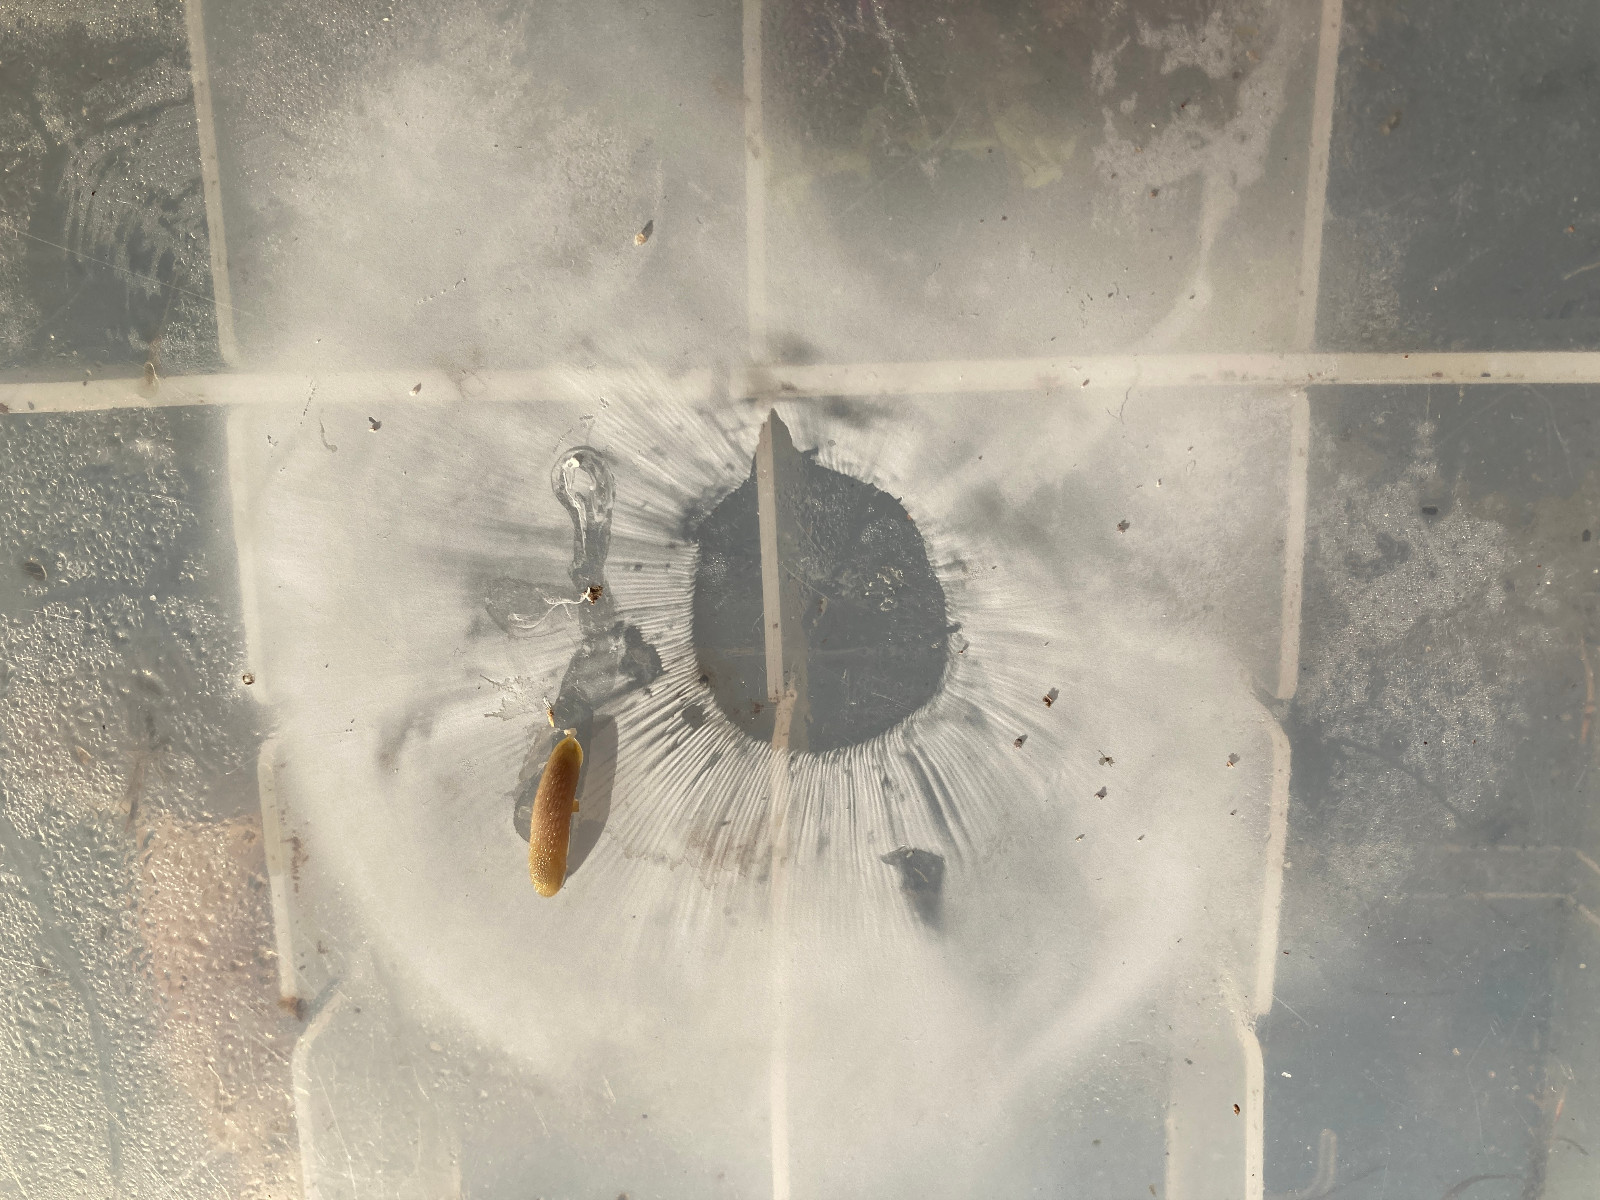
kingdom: Fungi
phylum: Basidiomycota
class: Agaricomycetes
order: Russulales
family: Russulaceae
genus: Russula
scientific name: Russula vesca
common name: spiselig skørhat
